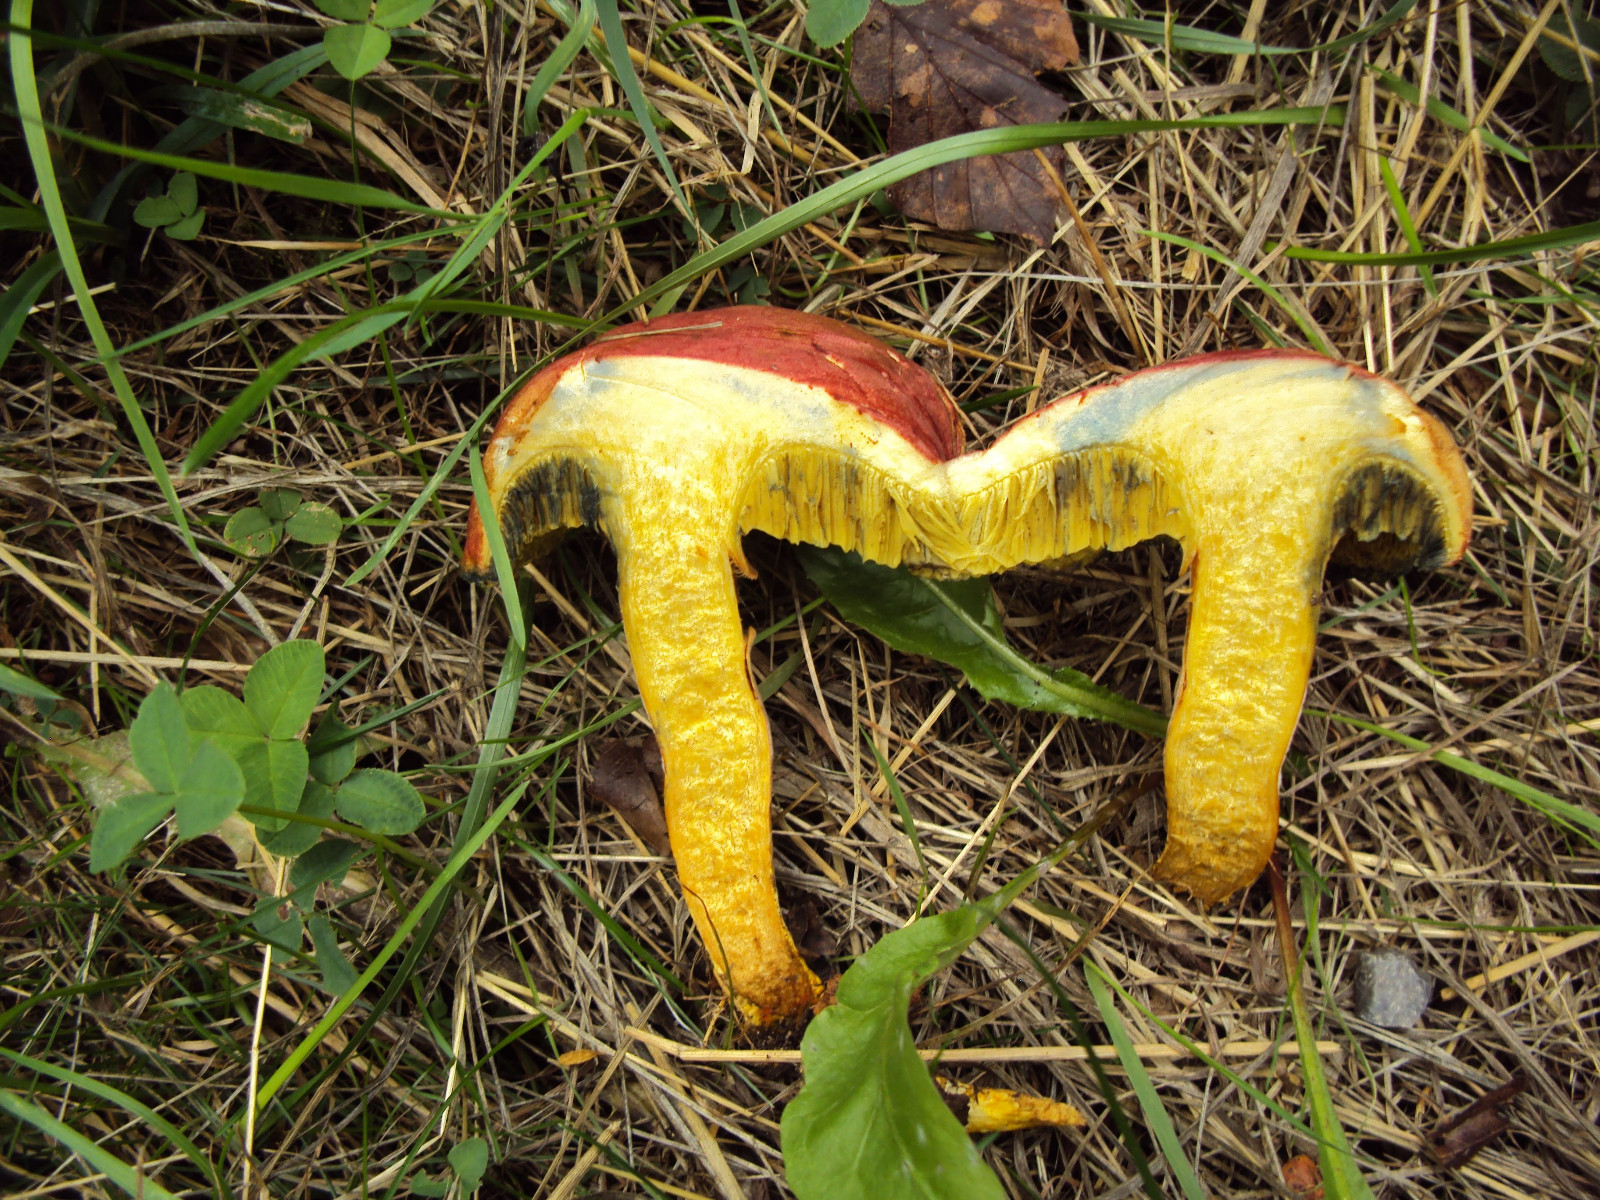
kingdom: Fungi
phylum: Basidiomycota
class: Agaricomycetes
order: Boletales
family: Boletaceae
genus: Hortiboletus
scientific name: Hortiboletus rubellus
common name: blodrød rørhat
